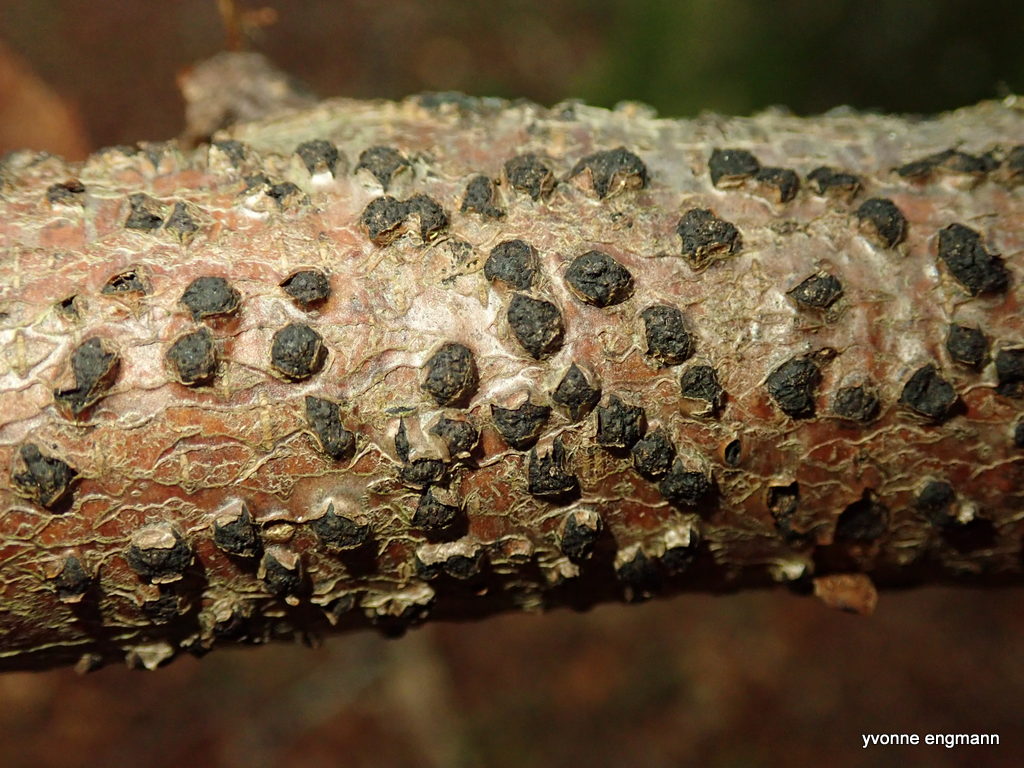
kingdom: Fungi
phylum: Ascomycota
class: Sordariomycetes
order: Xylariales
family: Diatrypaceae
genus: Diatrype
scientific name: Diatrype disciformis
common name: kant-kulskorpe
